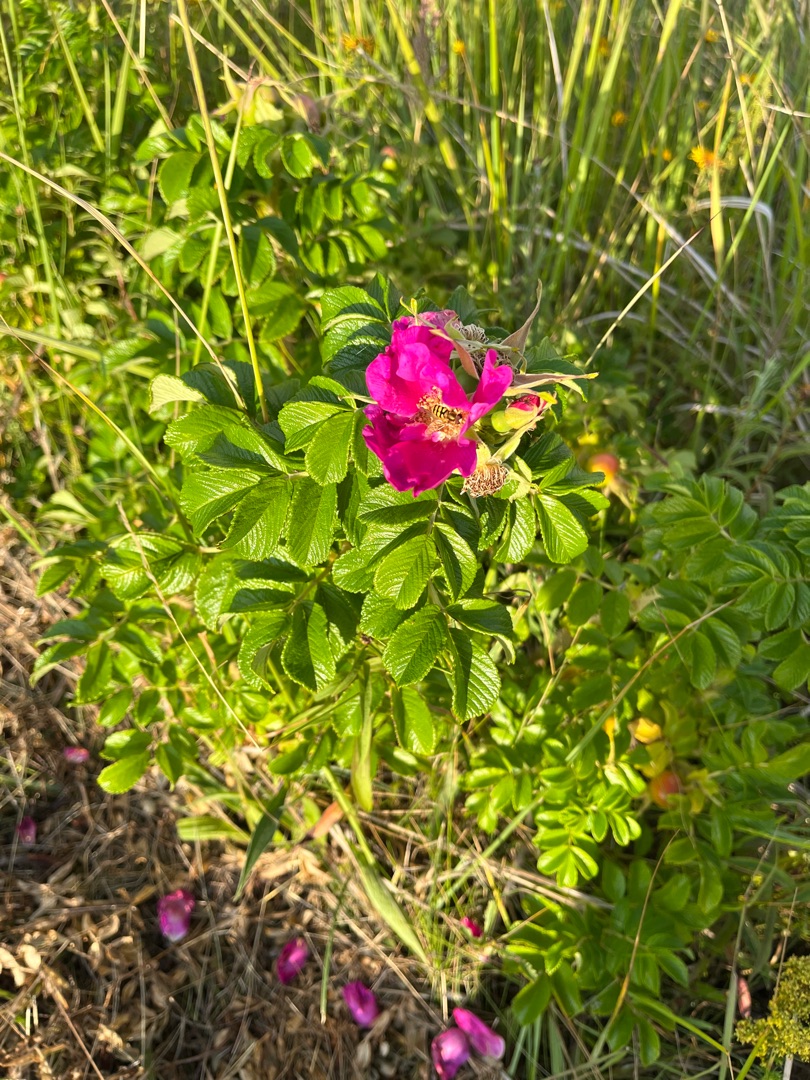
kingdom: Plantae
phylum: Tracheophyta
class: Magnoliopsida
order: Rosales
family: Rosaceae
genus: Rosa
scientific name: Rosa rugosa
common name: Rynket rose
